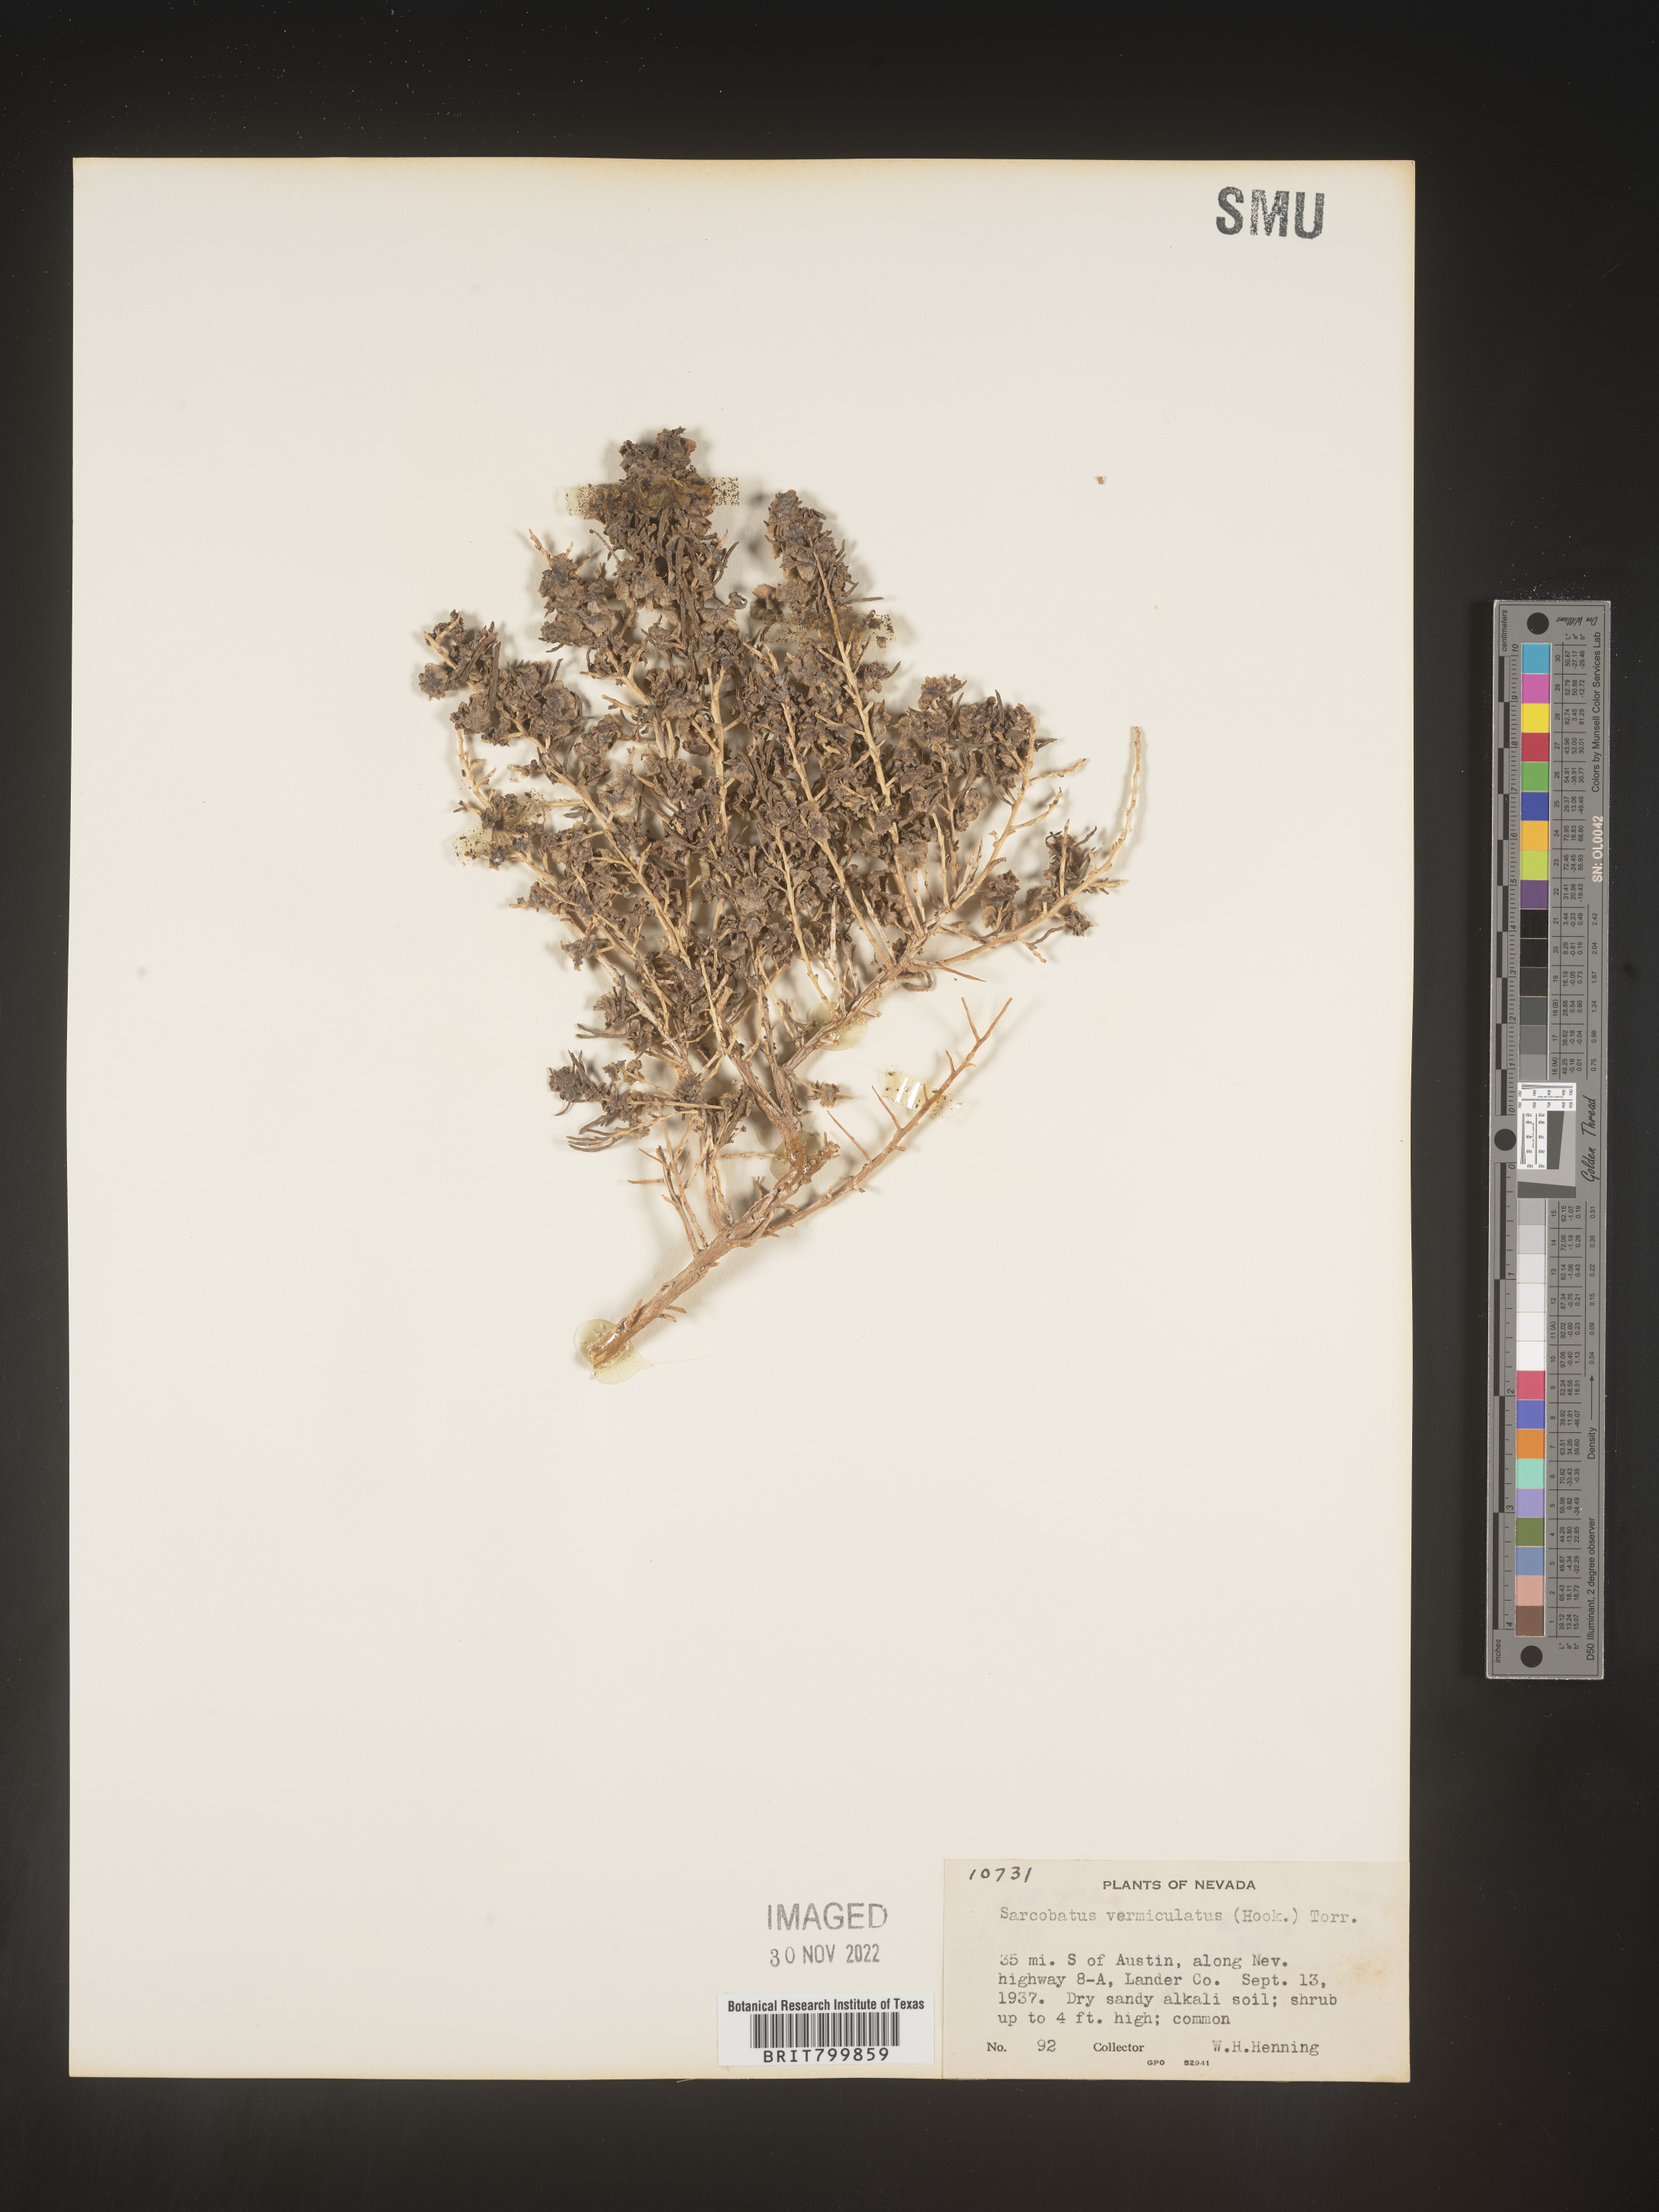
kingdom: Plantae
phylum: Tracheophyta
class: Magnoliopsida
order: Caryophyllales
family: Sarcobataceae
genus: Sarcobatus
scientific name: Sarcobatus vermiculatus
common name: Greasewood
